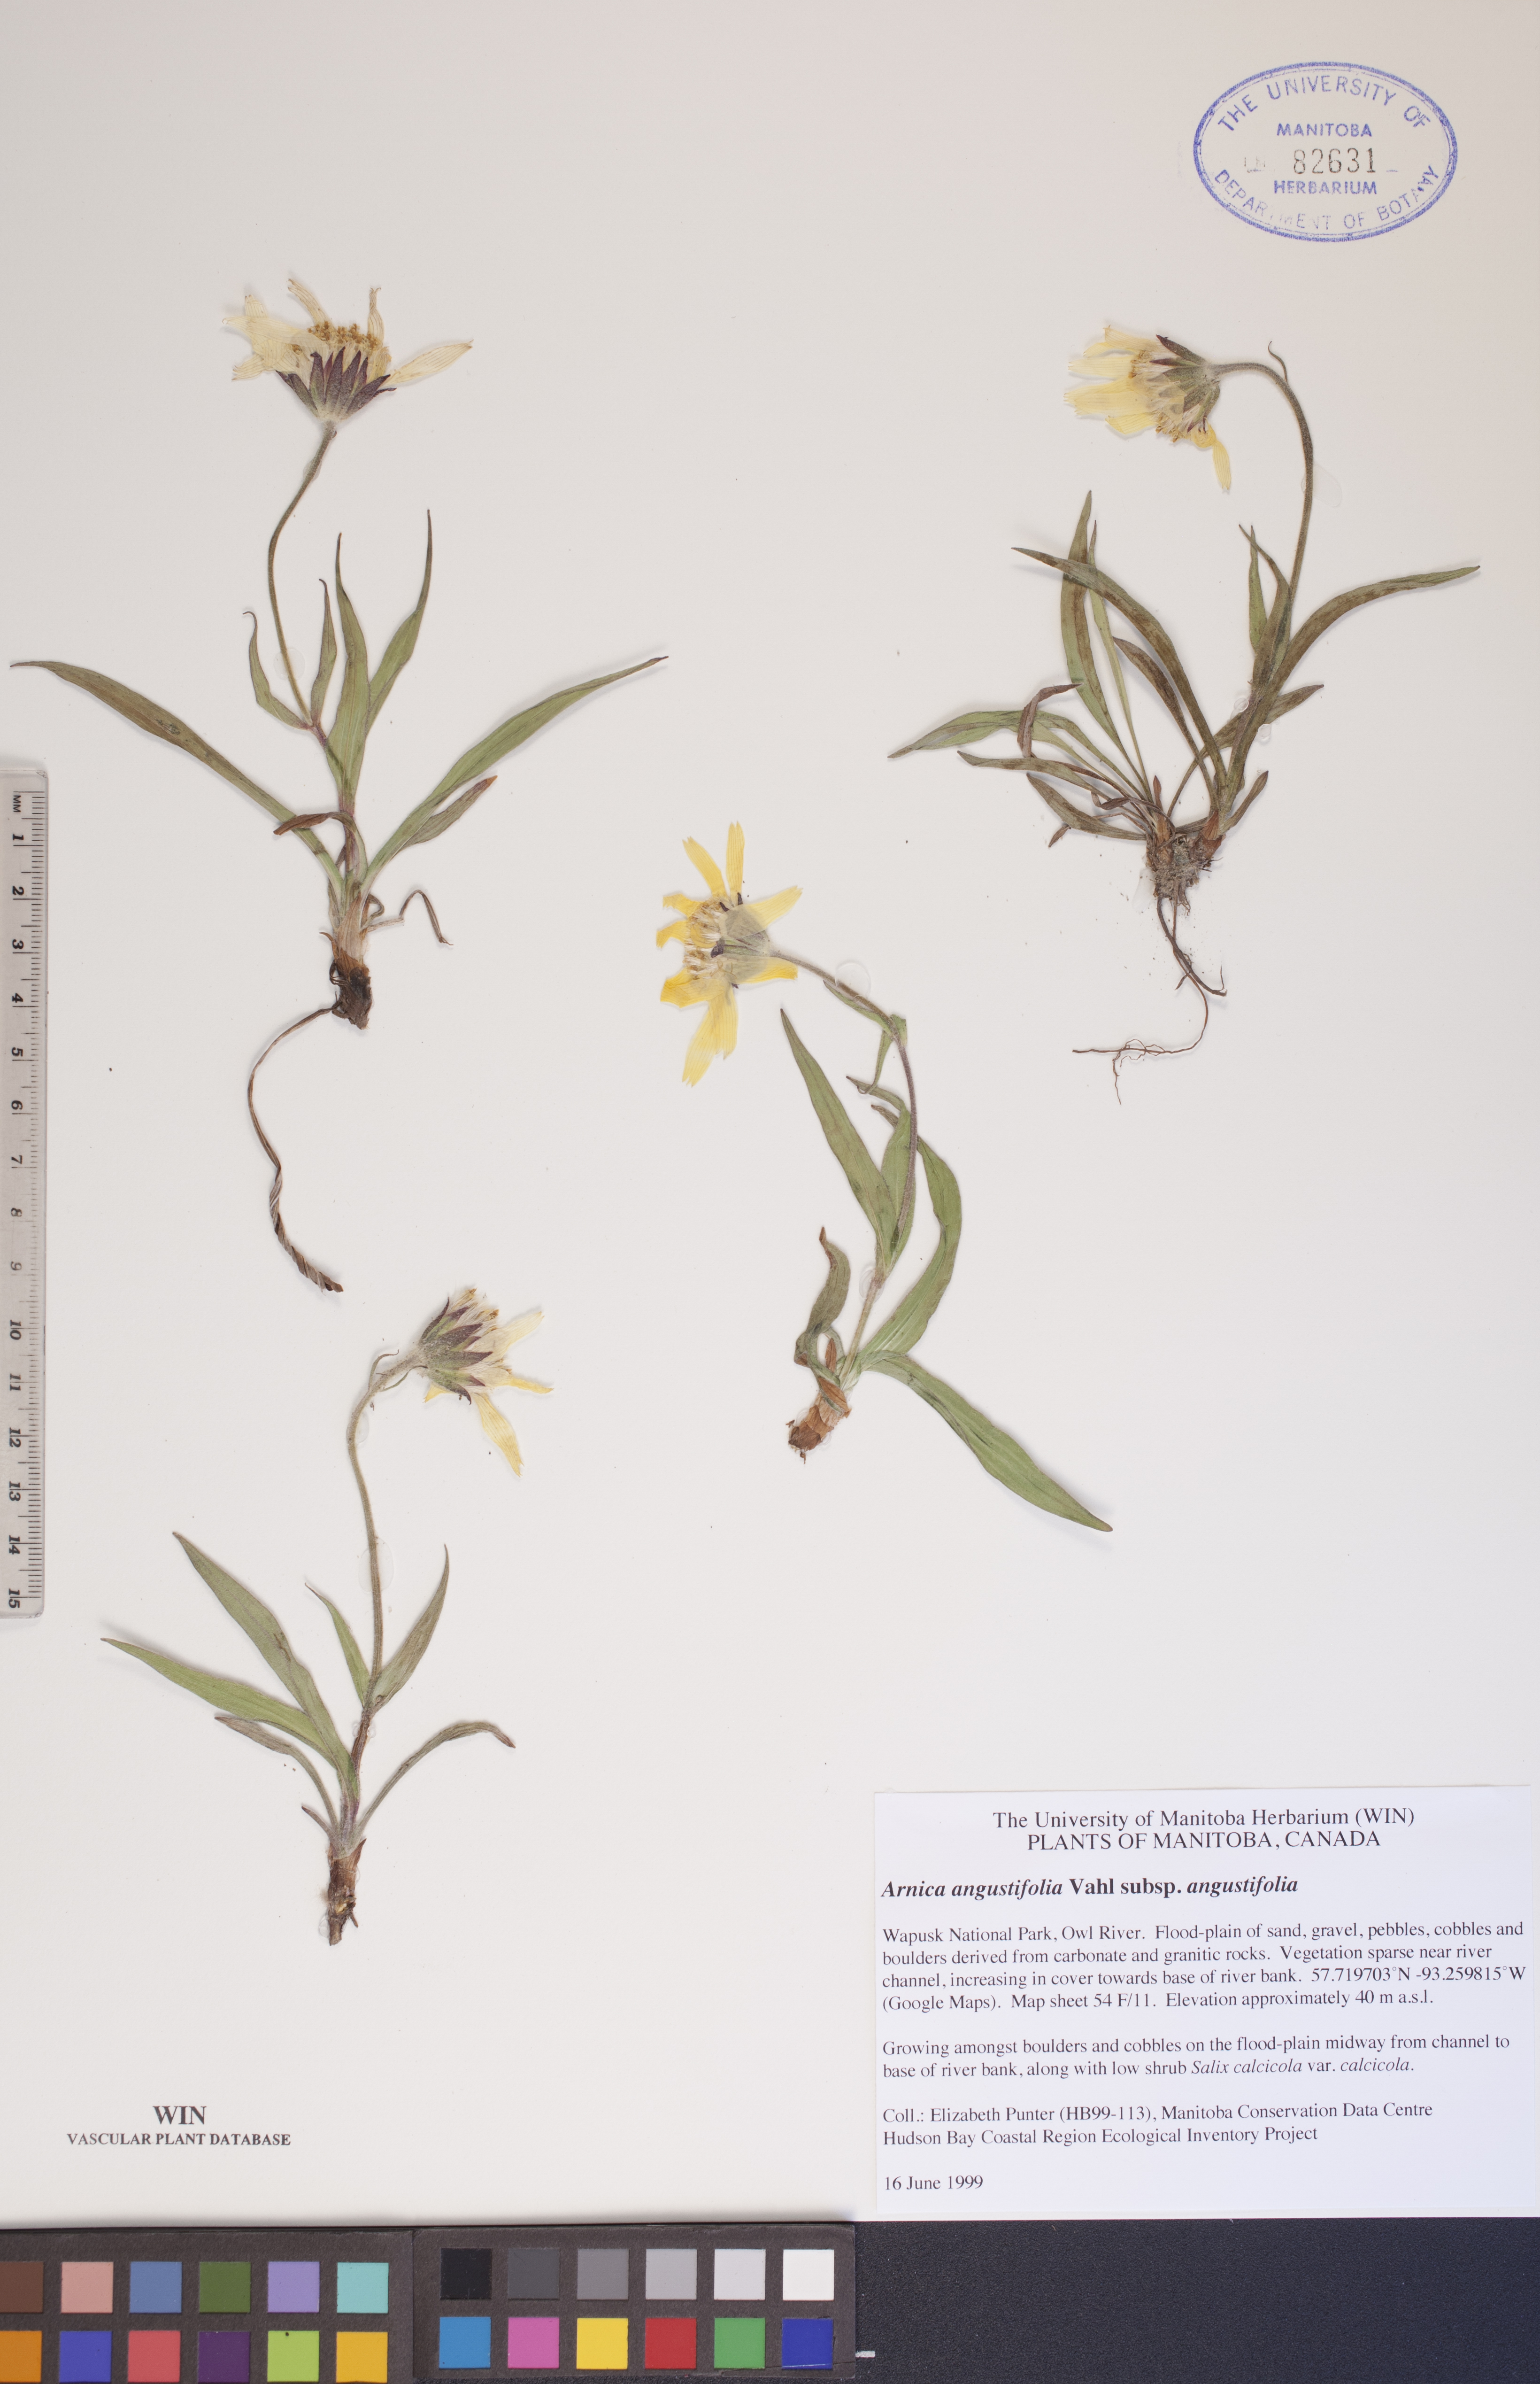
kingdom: Plantae
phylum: Tracheophyta
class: Magnoliopsida
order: Asterales
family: Asteraceae
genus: Arnica
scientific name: Arnica angustifolia
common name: Arctic arnica
